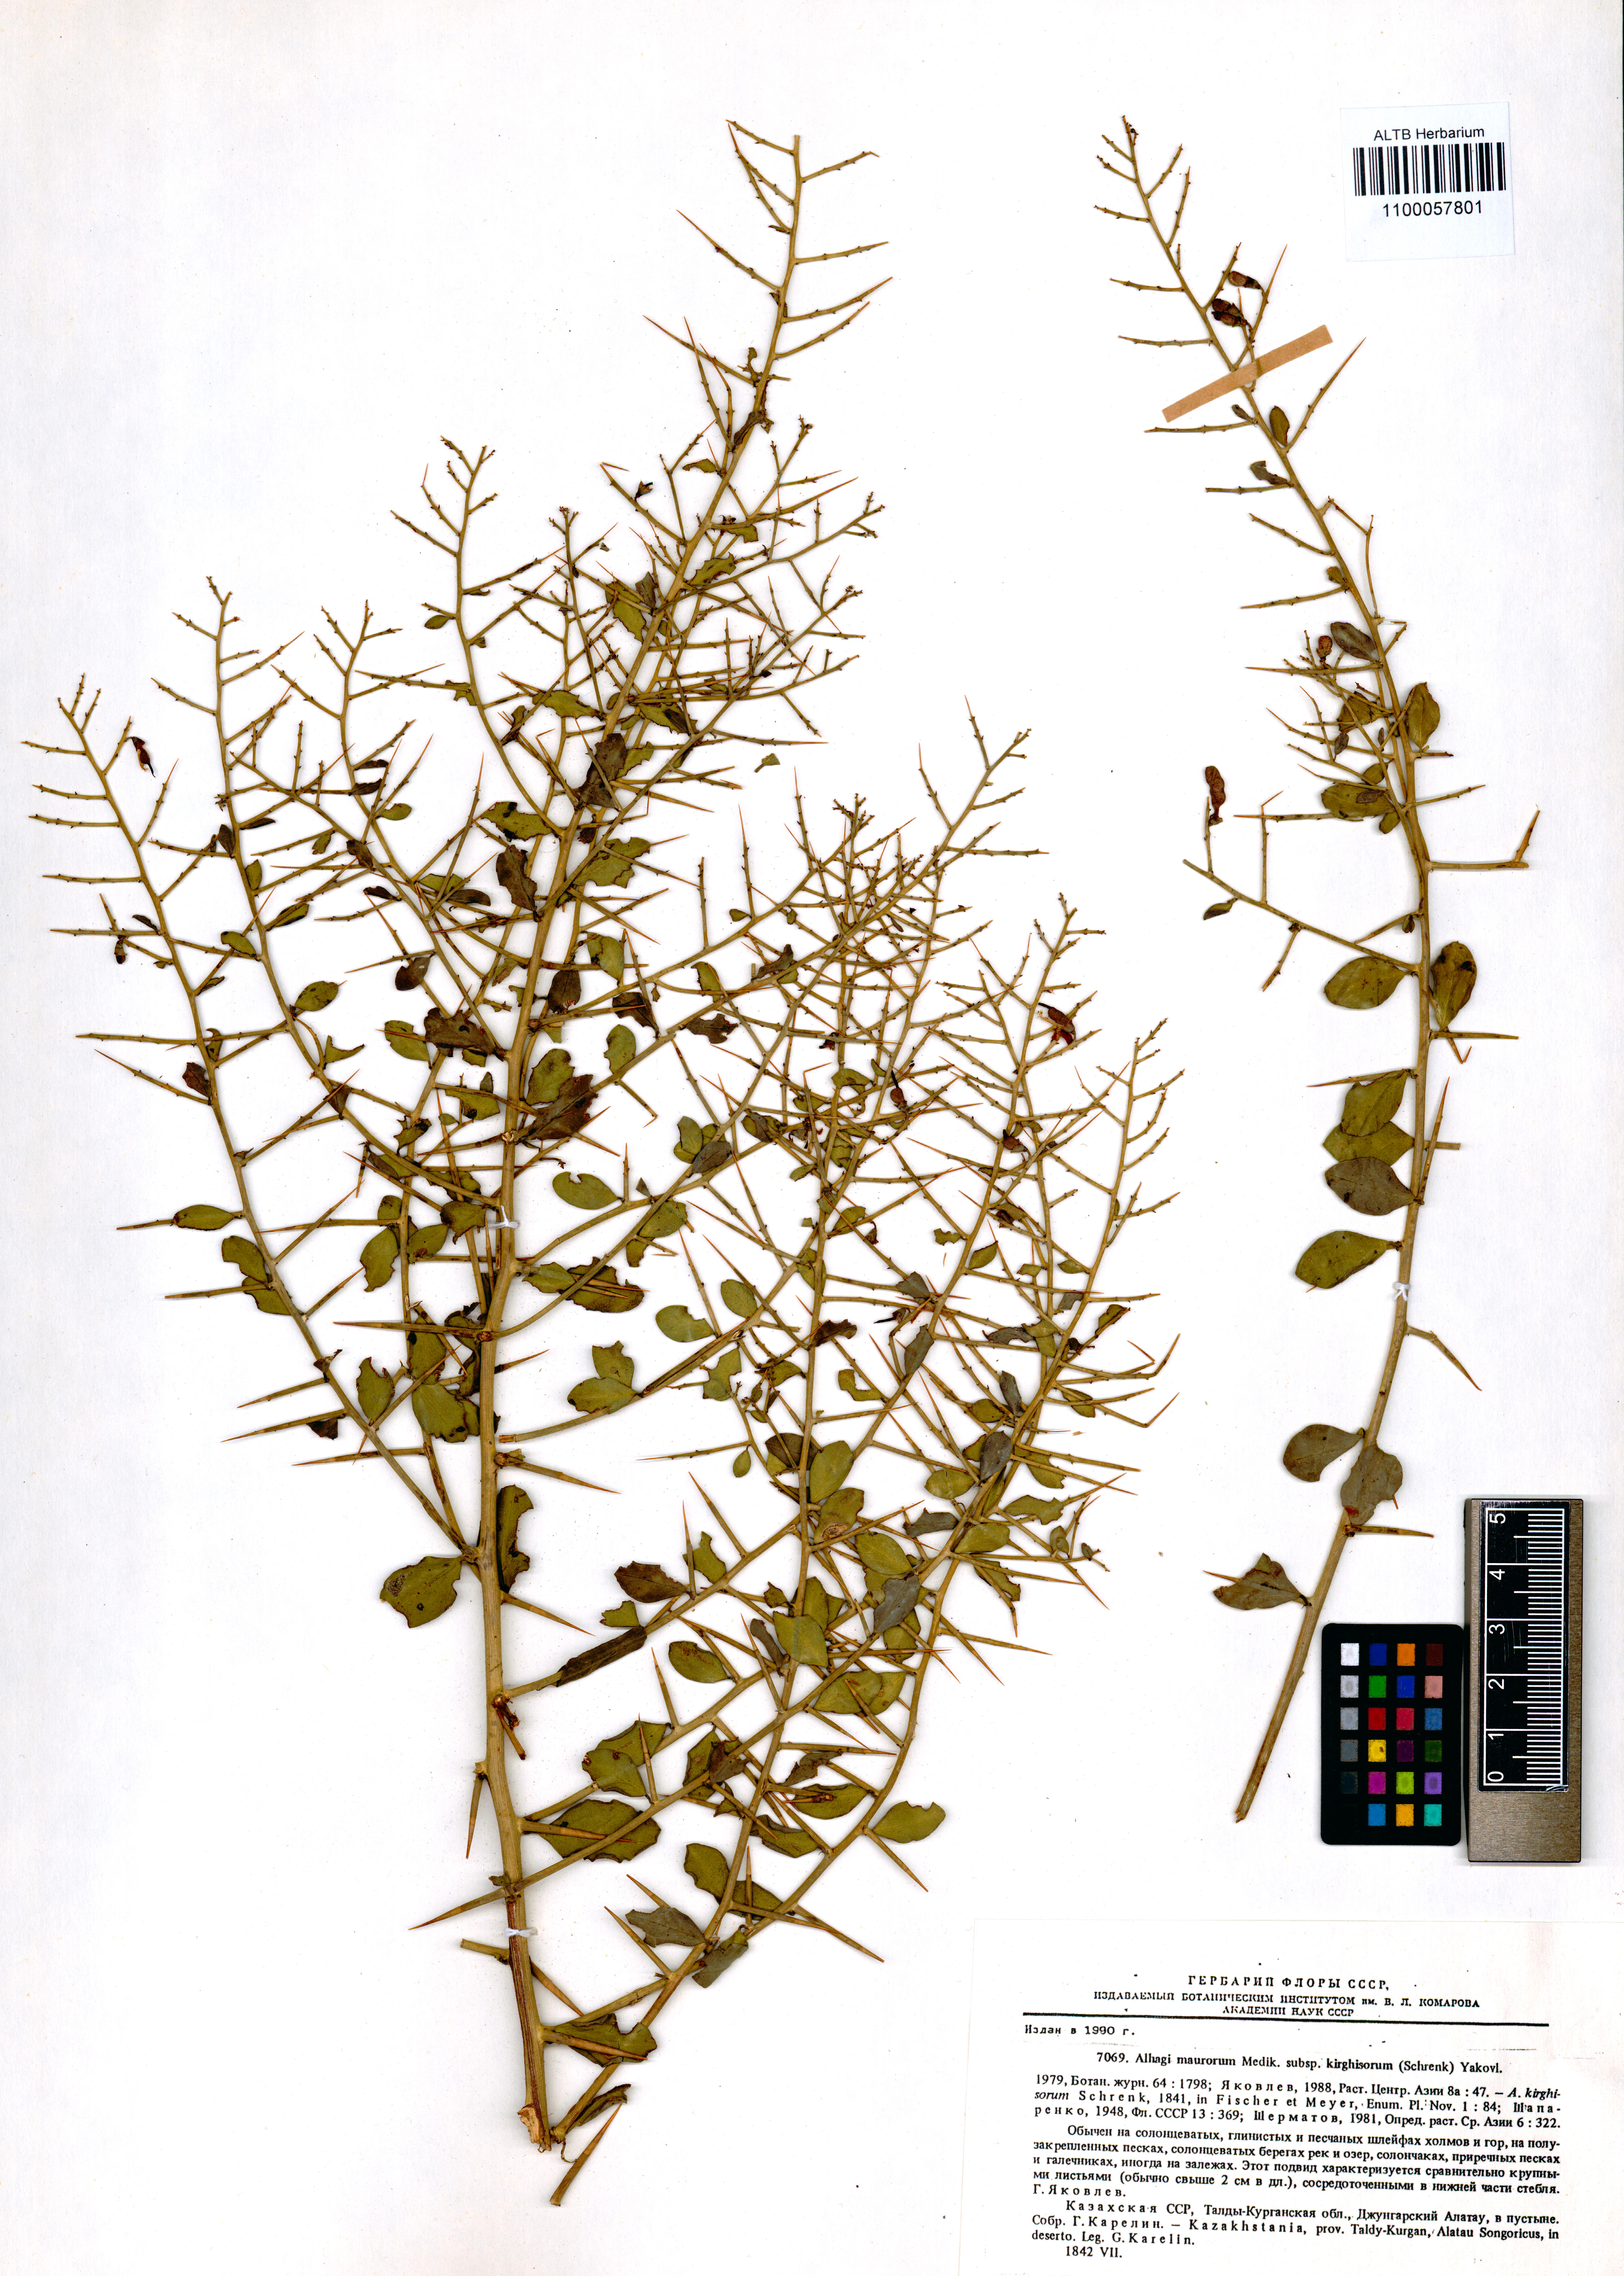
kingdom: Plantae
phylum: Tracheophyta
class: Magnoliopsida
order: Fabales
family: Fabaceae
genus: Alhagi
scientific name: Alhagi kirghisorum
